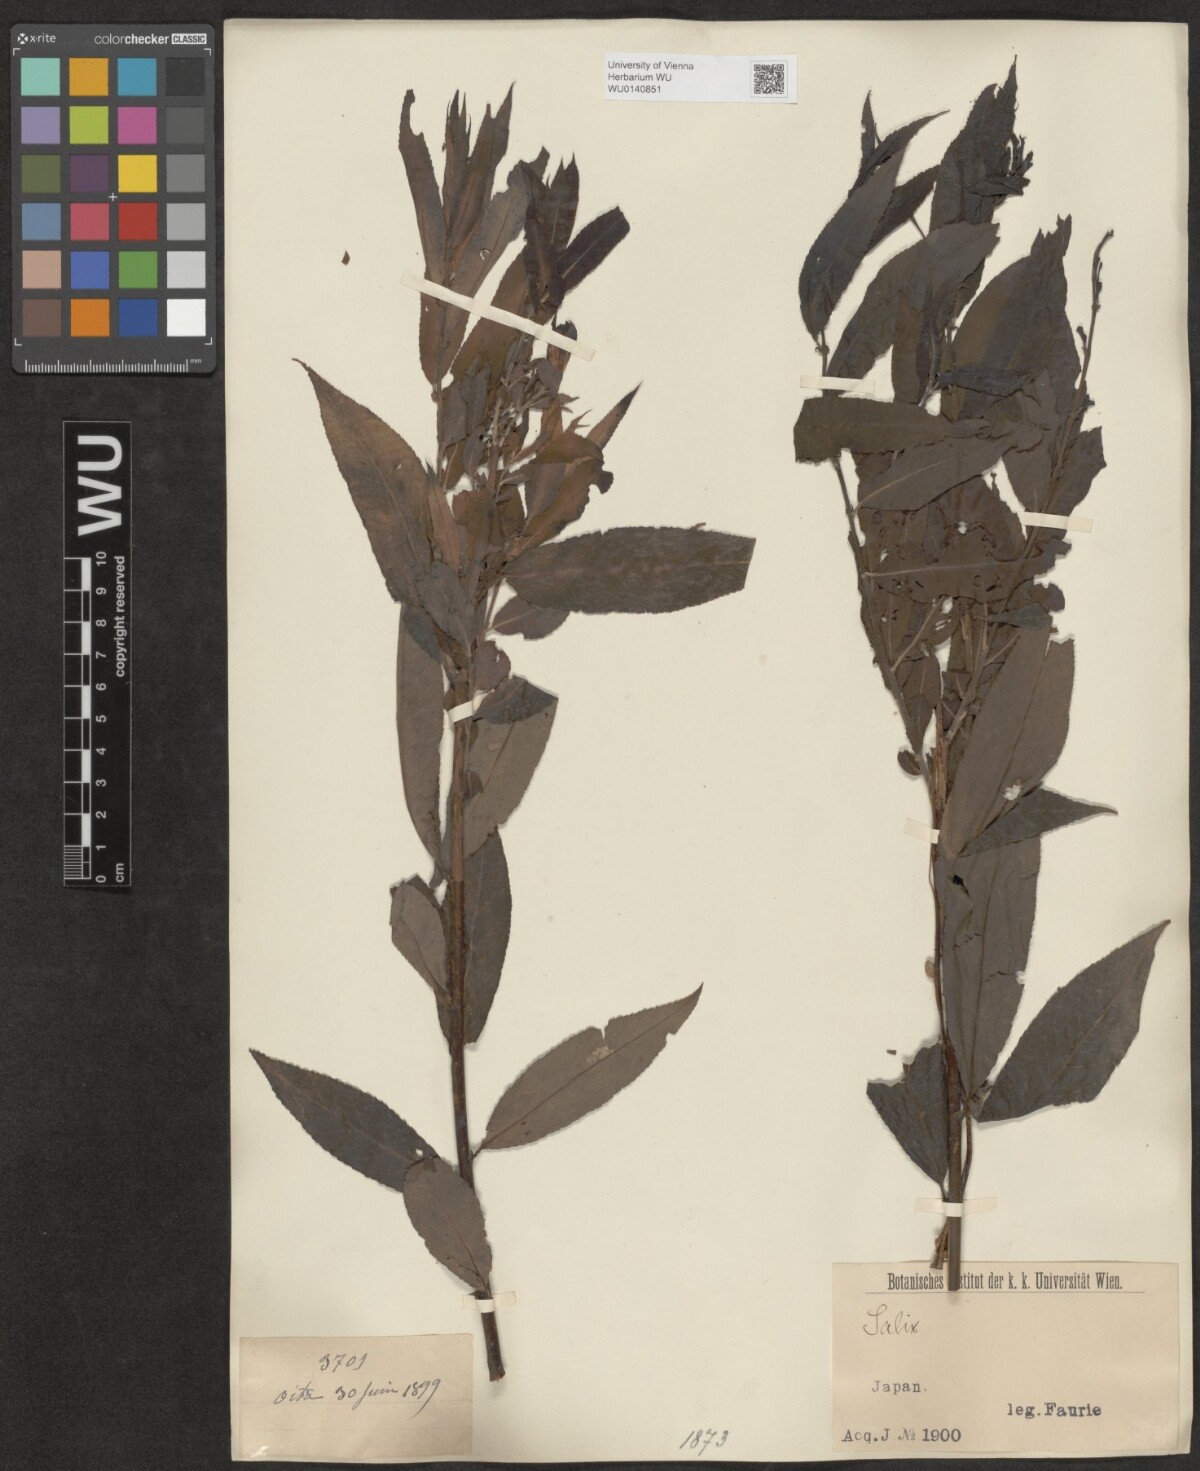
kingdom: Plantae
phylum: Tracheophyta
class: Magnoliopsida
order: Malpighiales
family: Salicaceae
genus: Salix
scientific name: Salix
